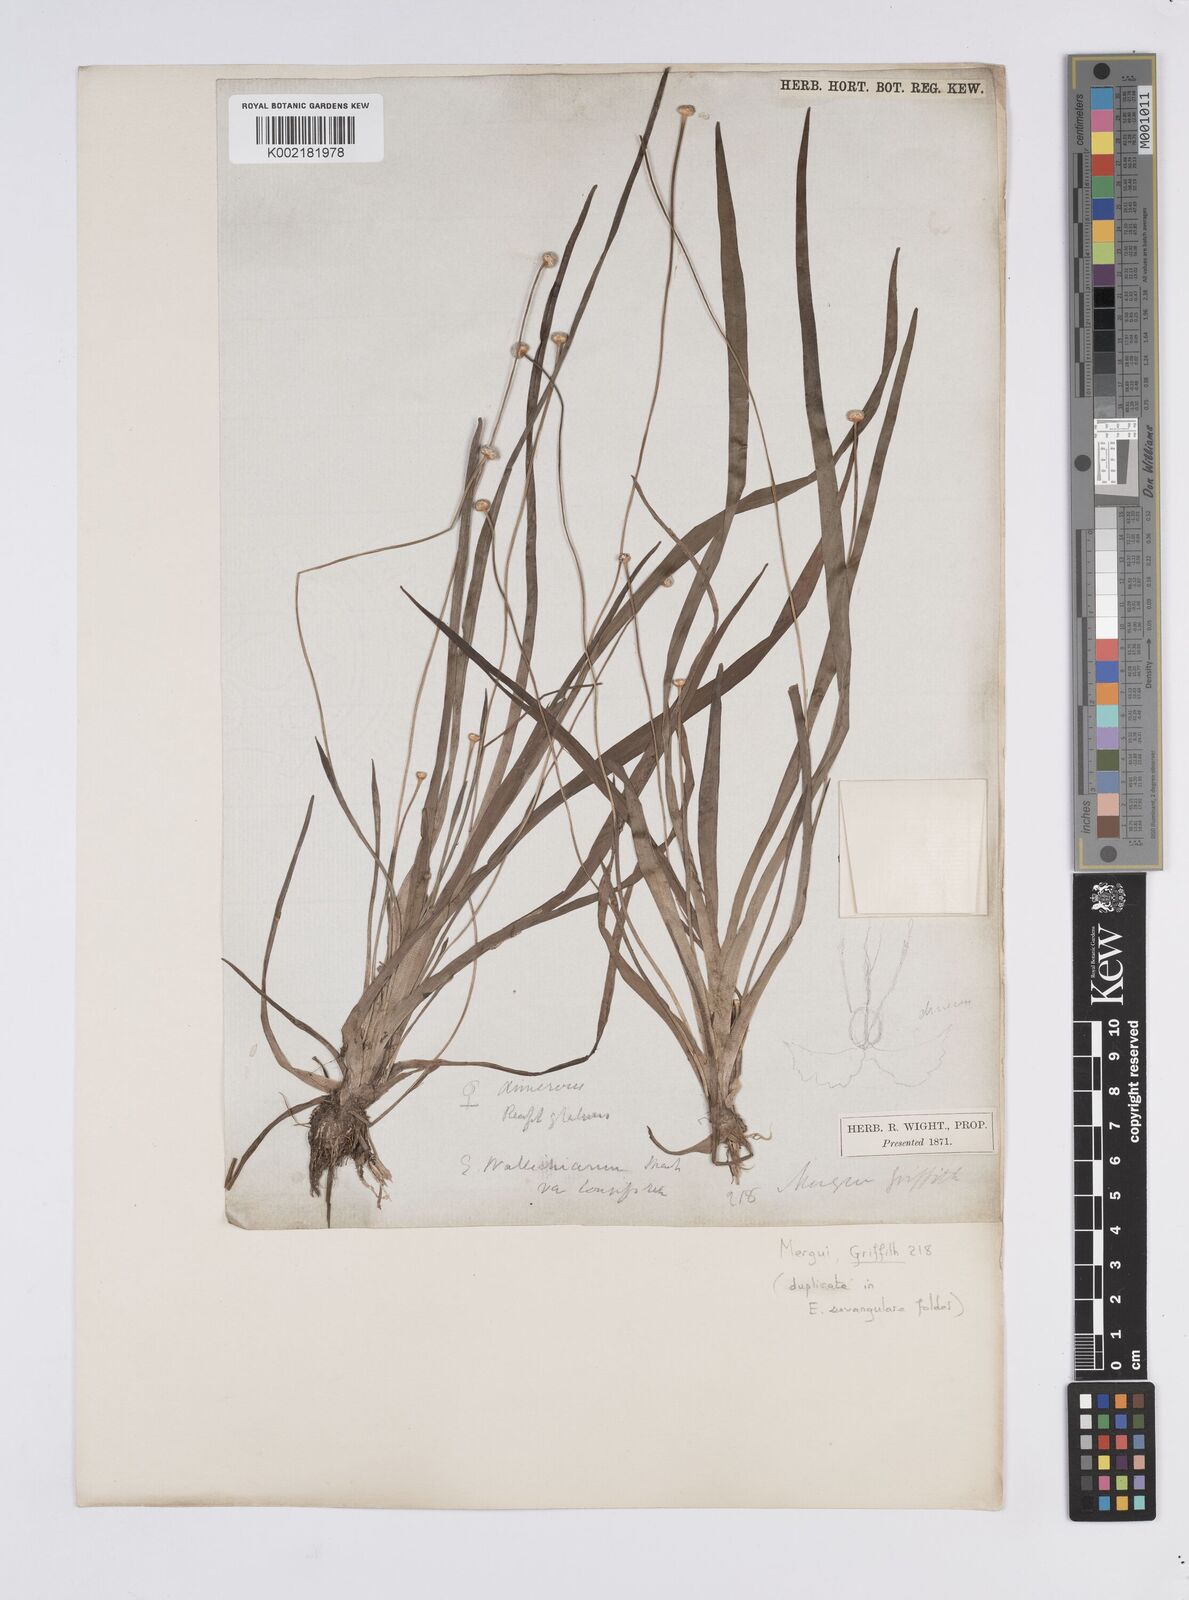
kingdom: Plantae
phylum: Tracheophyta
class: Liliopsida
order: Poales
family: Eriocaulaceae
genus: Eriocaulon
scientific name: Eriocaulon willdenovianum
